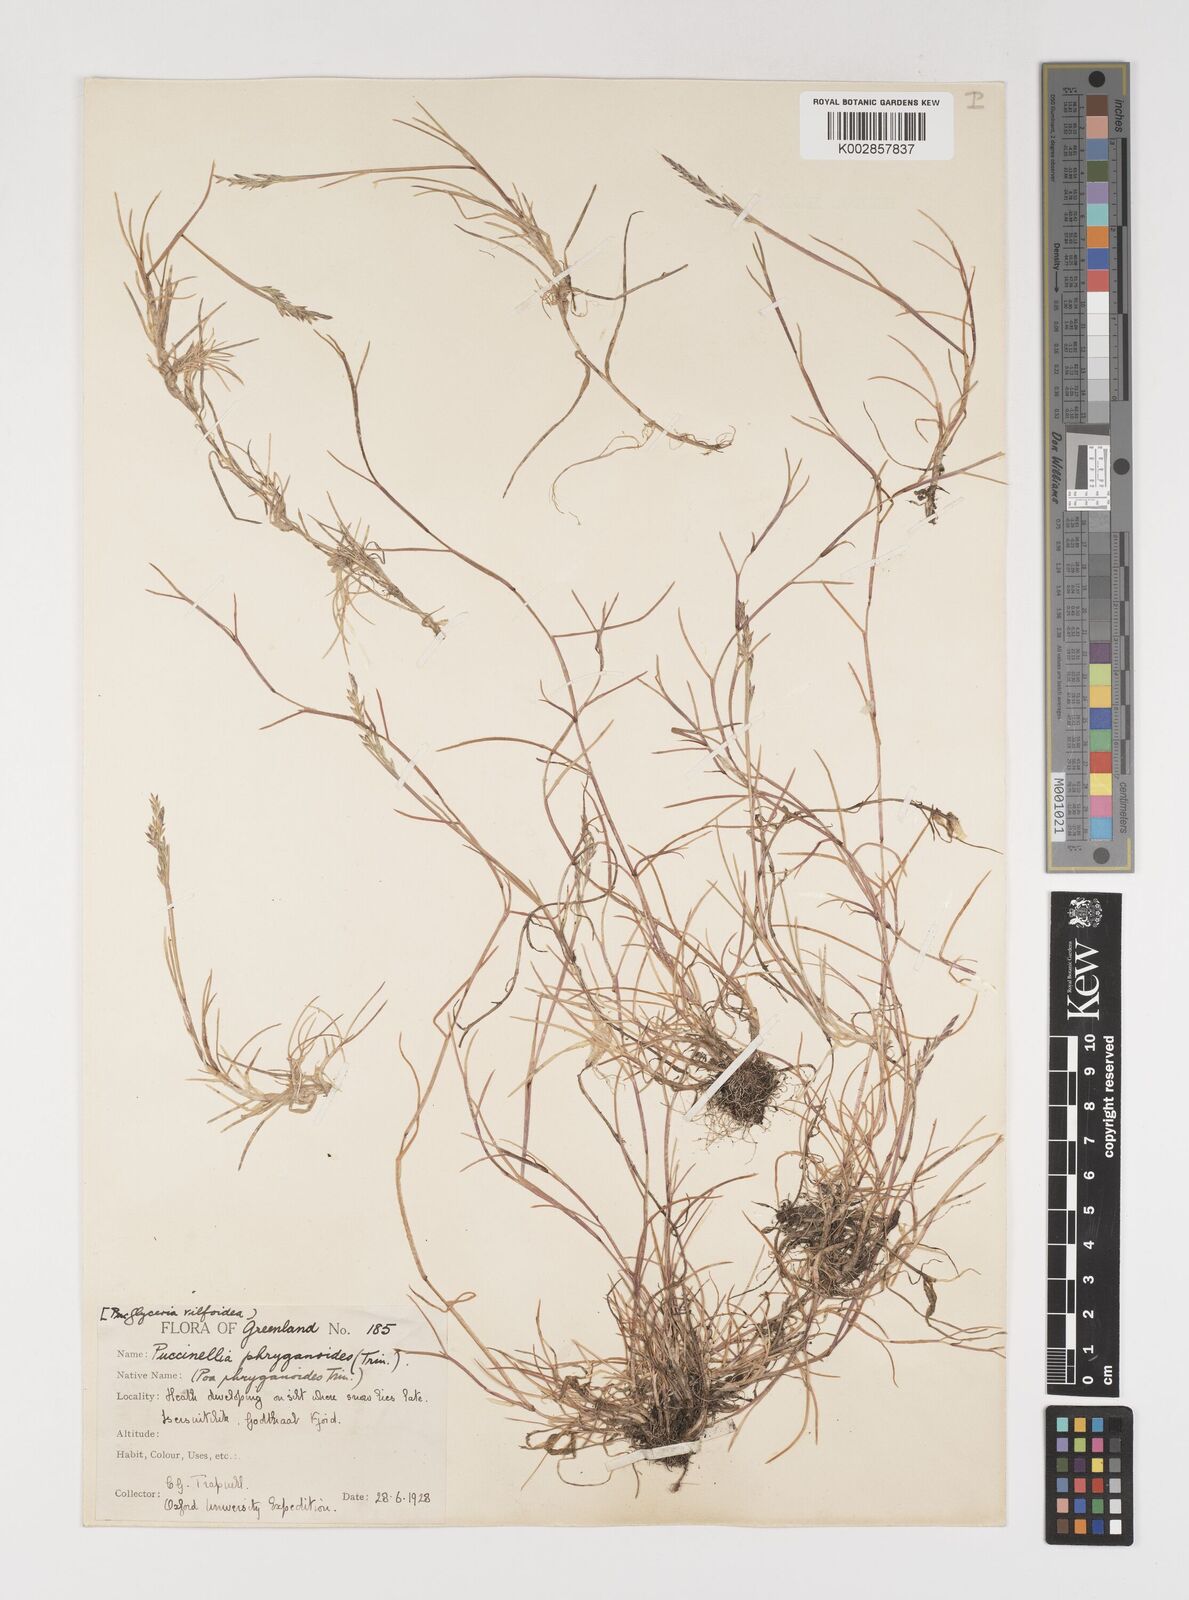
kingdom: Plantae
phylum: Tracheophyta
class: Liliopsida
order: Poales
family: Poaceae
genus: Puccinellia
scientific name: Puccinellia phryganodes
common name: Creeping alkaligrass
